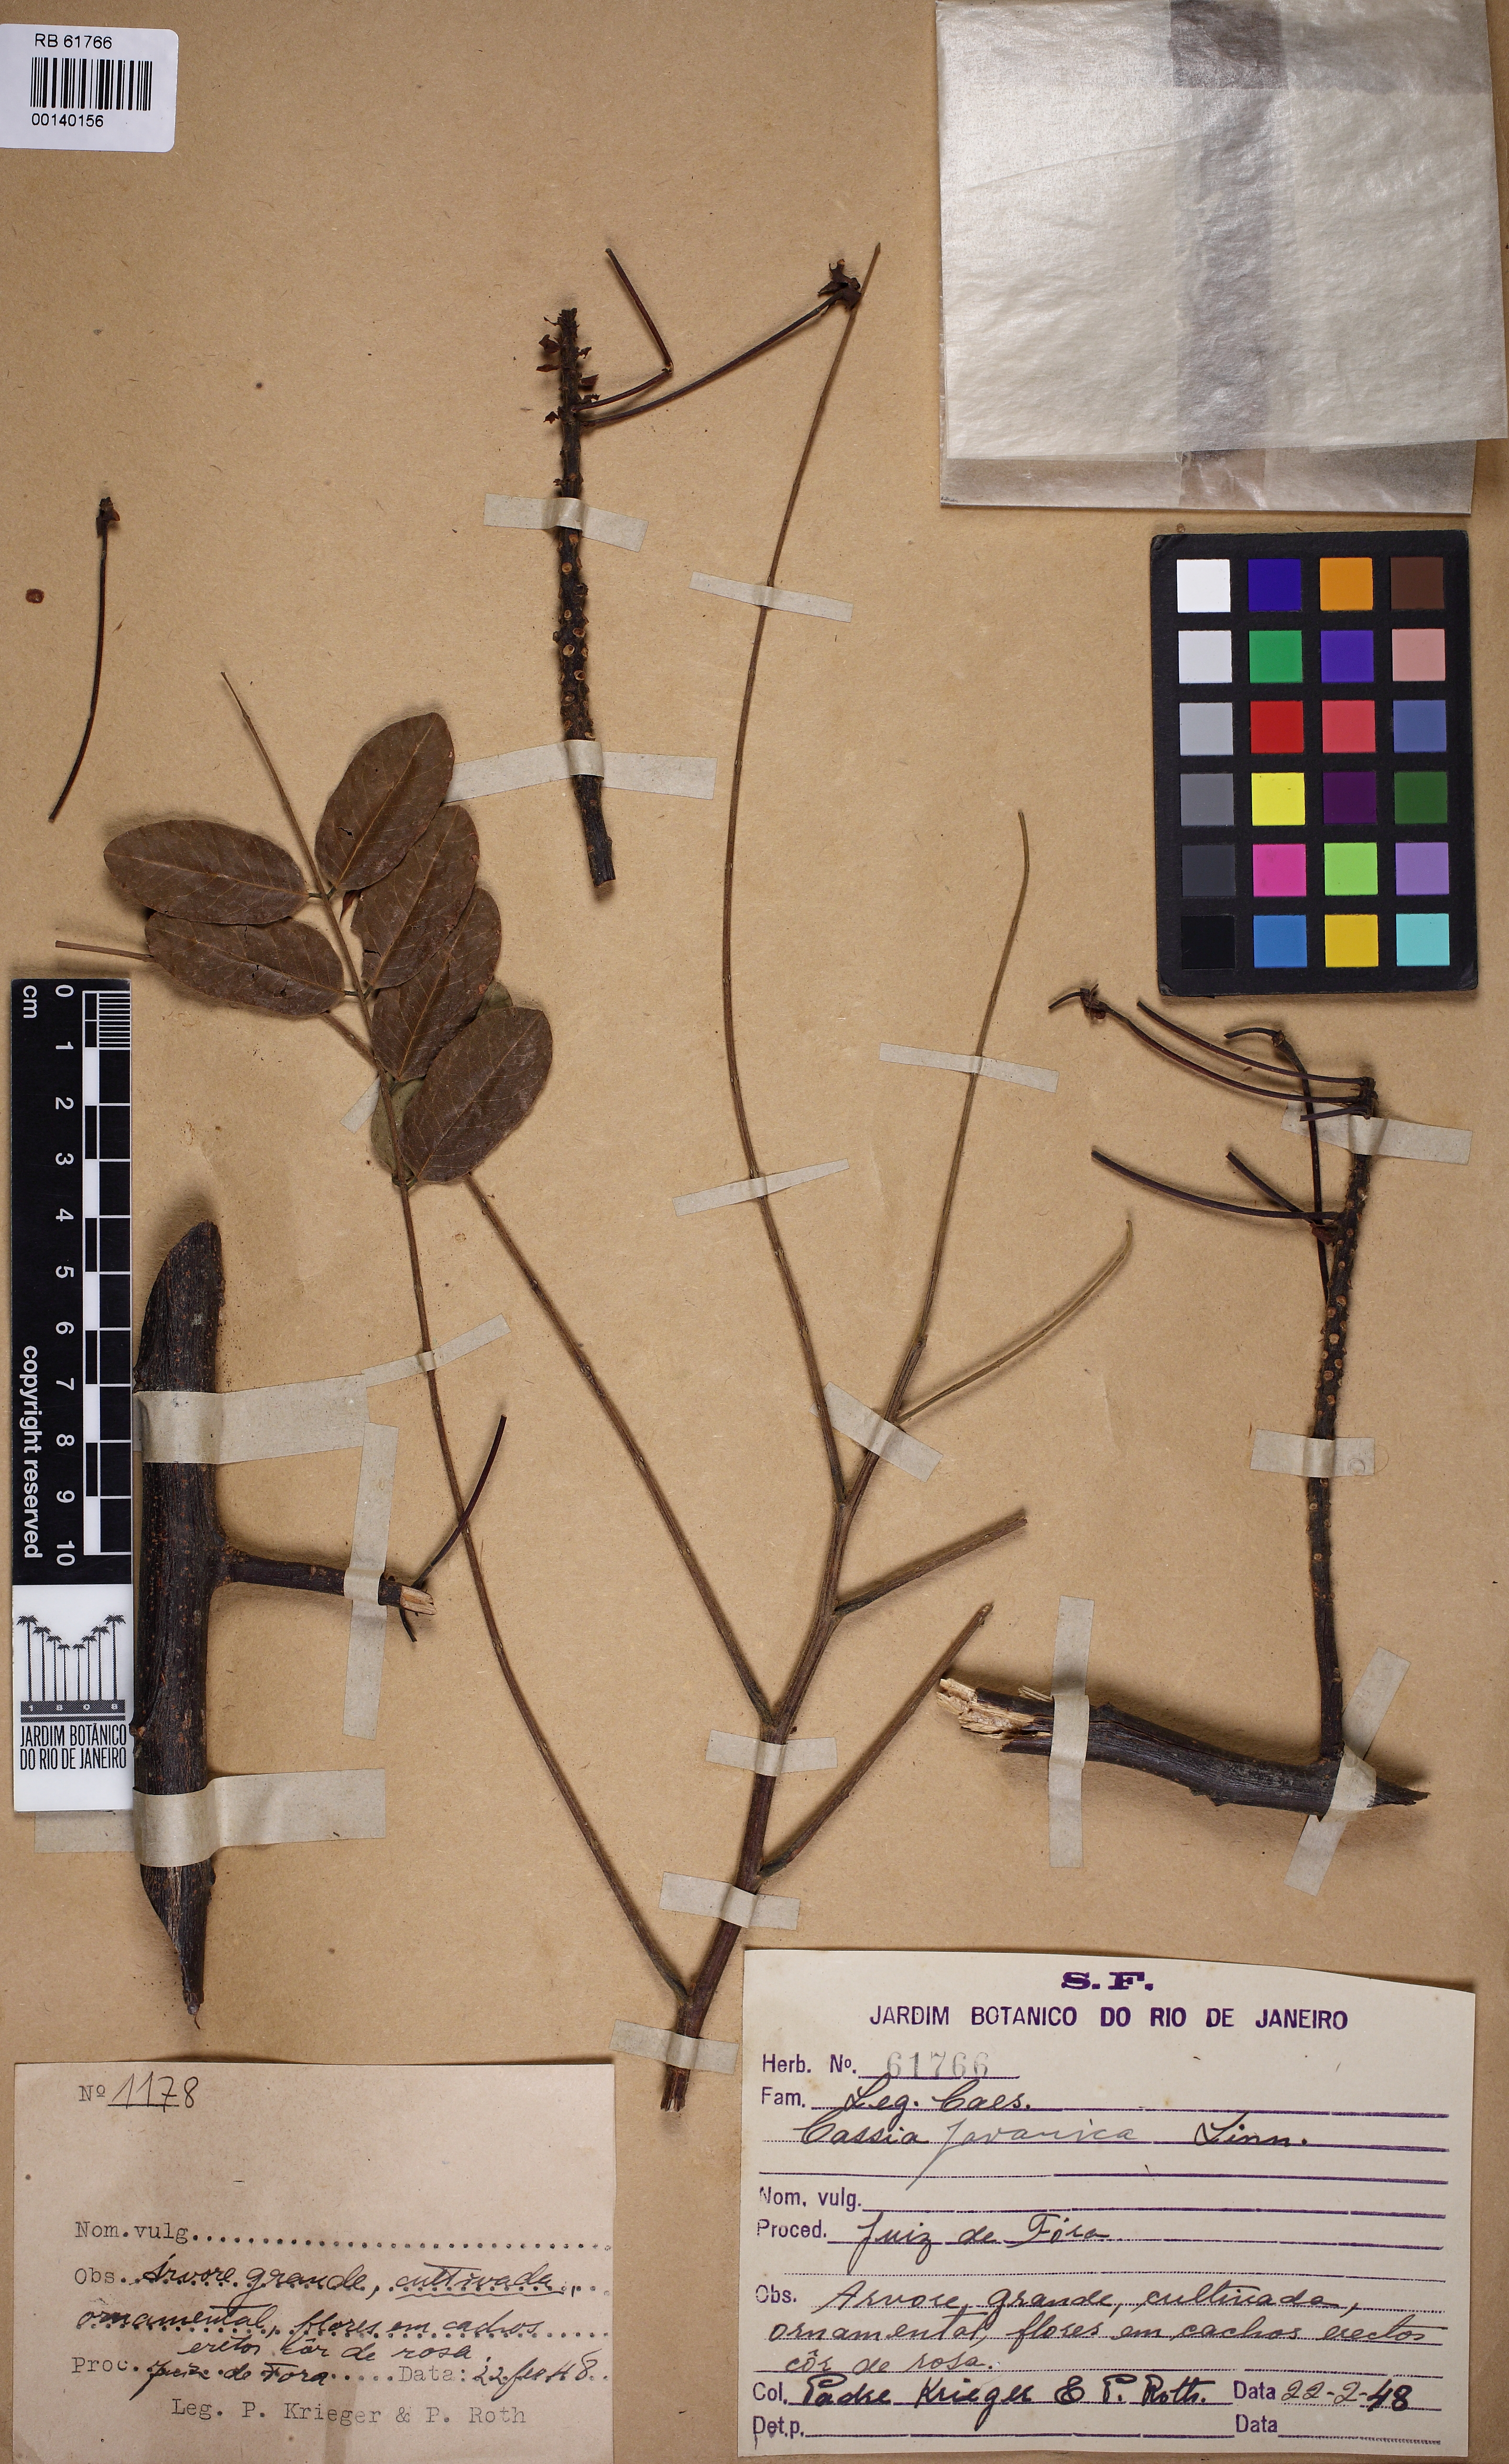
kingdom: Plantae
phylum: Tracheophyta
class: Magnoliopsida
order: Fabales
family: Fabaceae
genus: Cassia
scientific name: Cassia javanica
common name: Apple blossom
